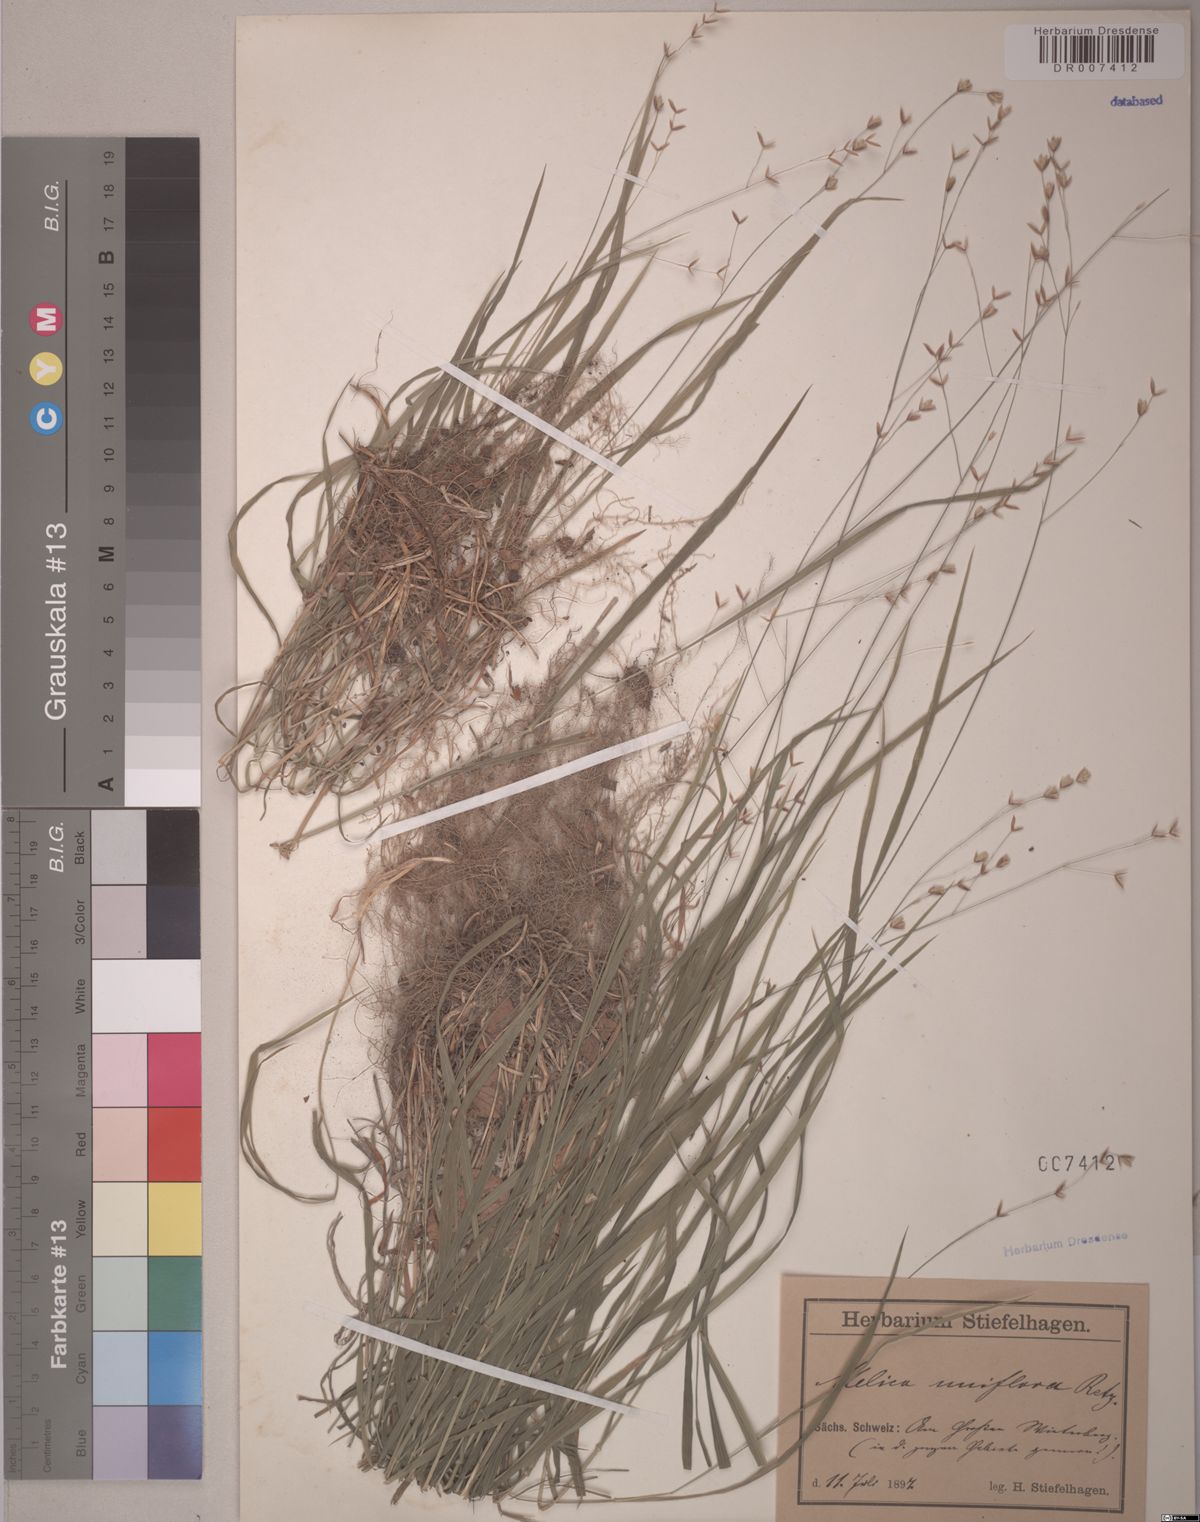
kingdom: Plantae
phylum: Tracheophyta
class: Liliopsida
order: Poales
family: Poaceae
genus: Melica
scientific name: Melica uniflora
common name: Wood melick
